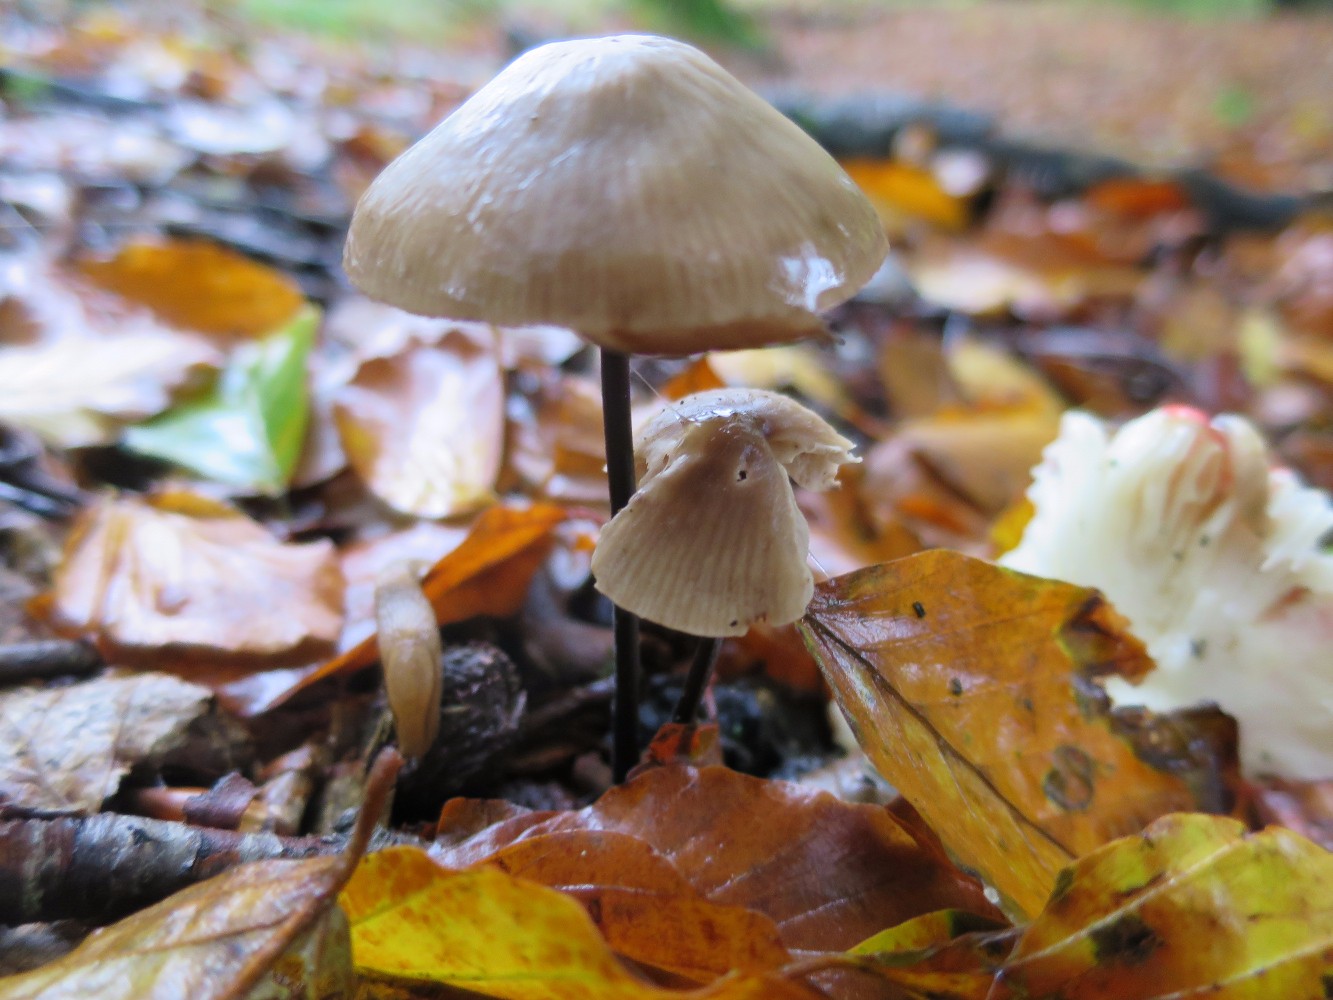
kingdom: Fungi
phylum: Basidiomycota
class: Agaricomycetes
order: Agaricales
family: Omphalotaceae
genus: Mycetinis
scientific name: Mycetinis alliaceus
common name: stor løghat
